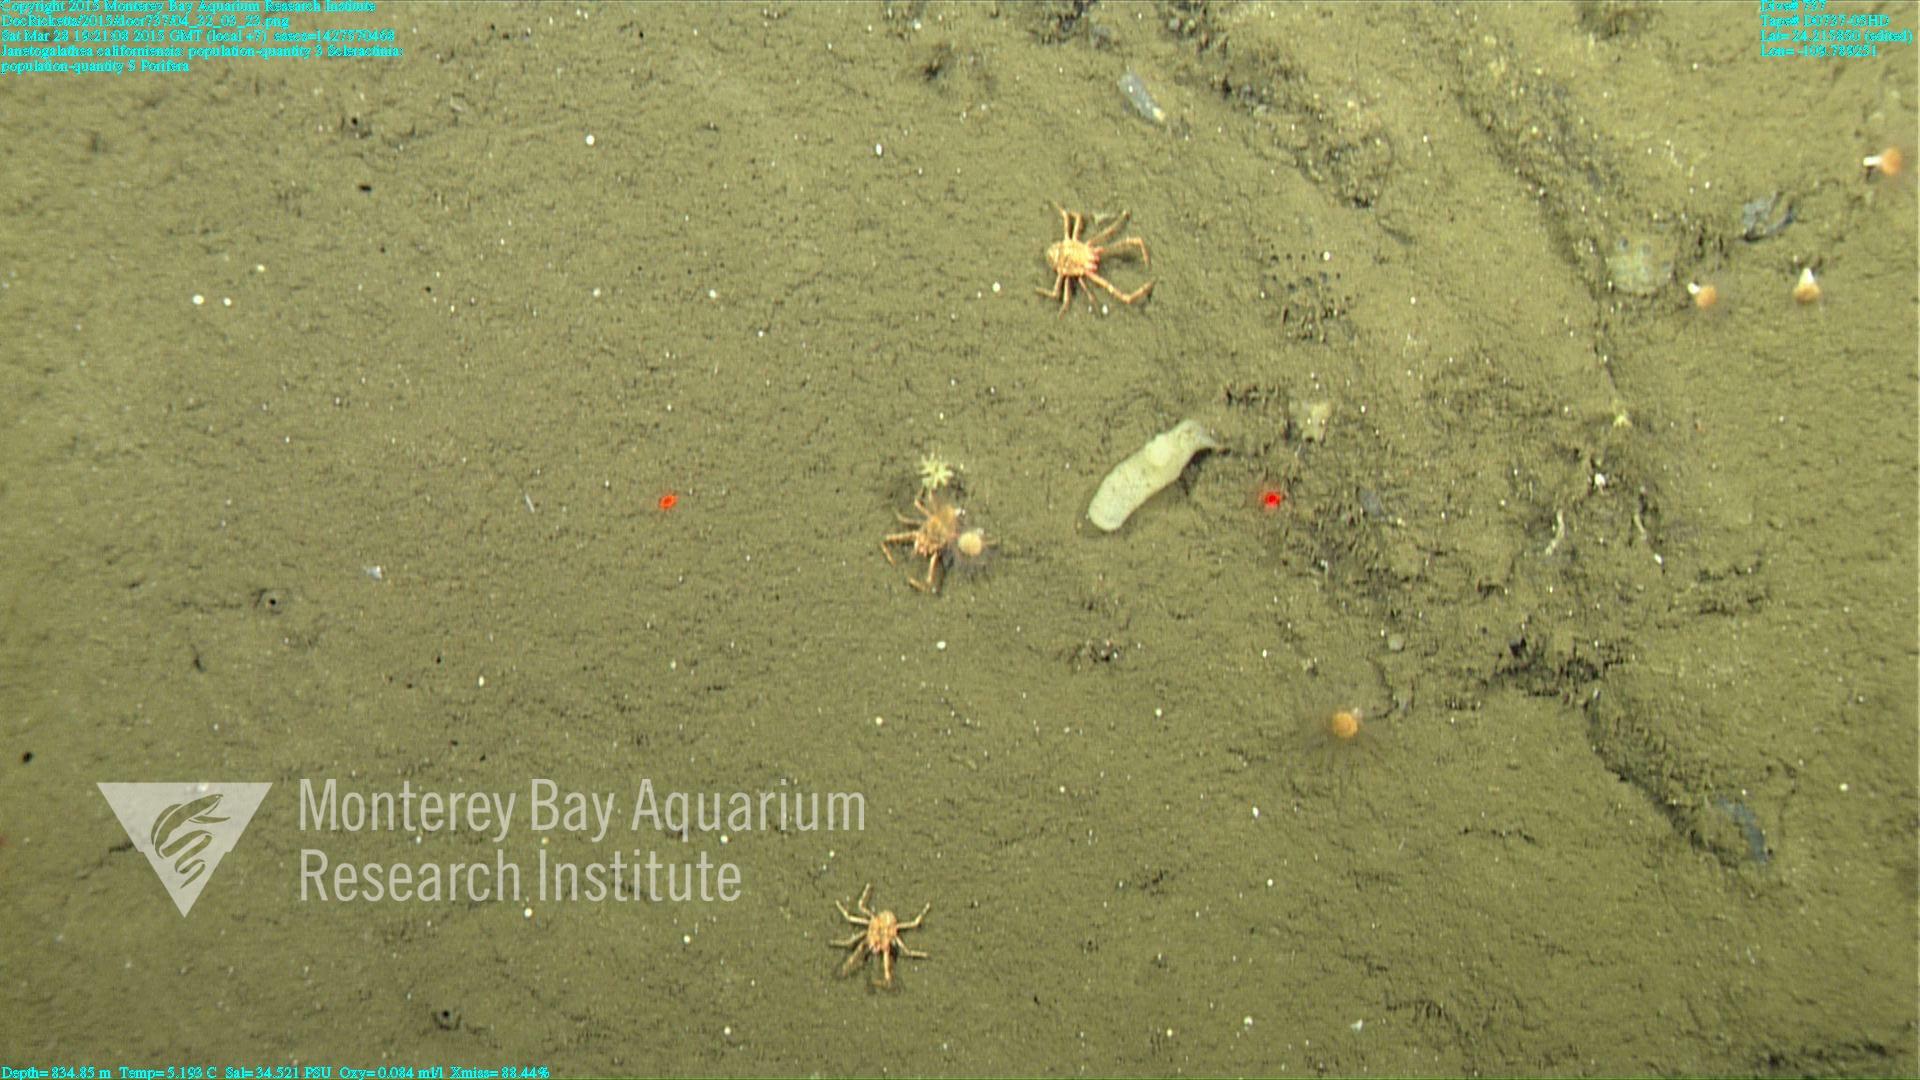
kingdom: Animalia
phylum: Cnidaria
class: Anthozoa
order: Scleractinia
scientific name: Scleractinia
